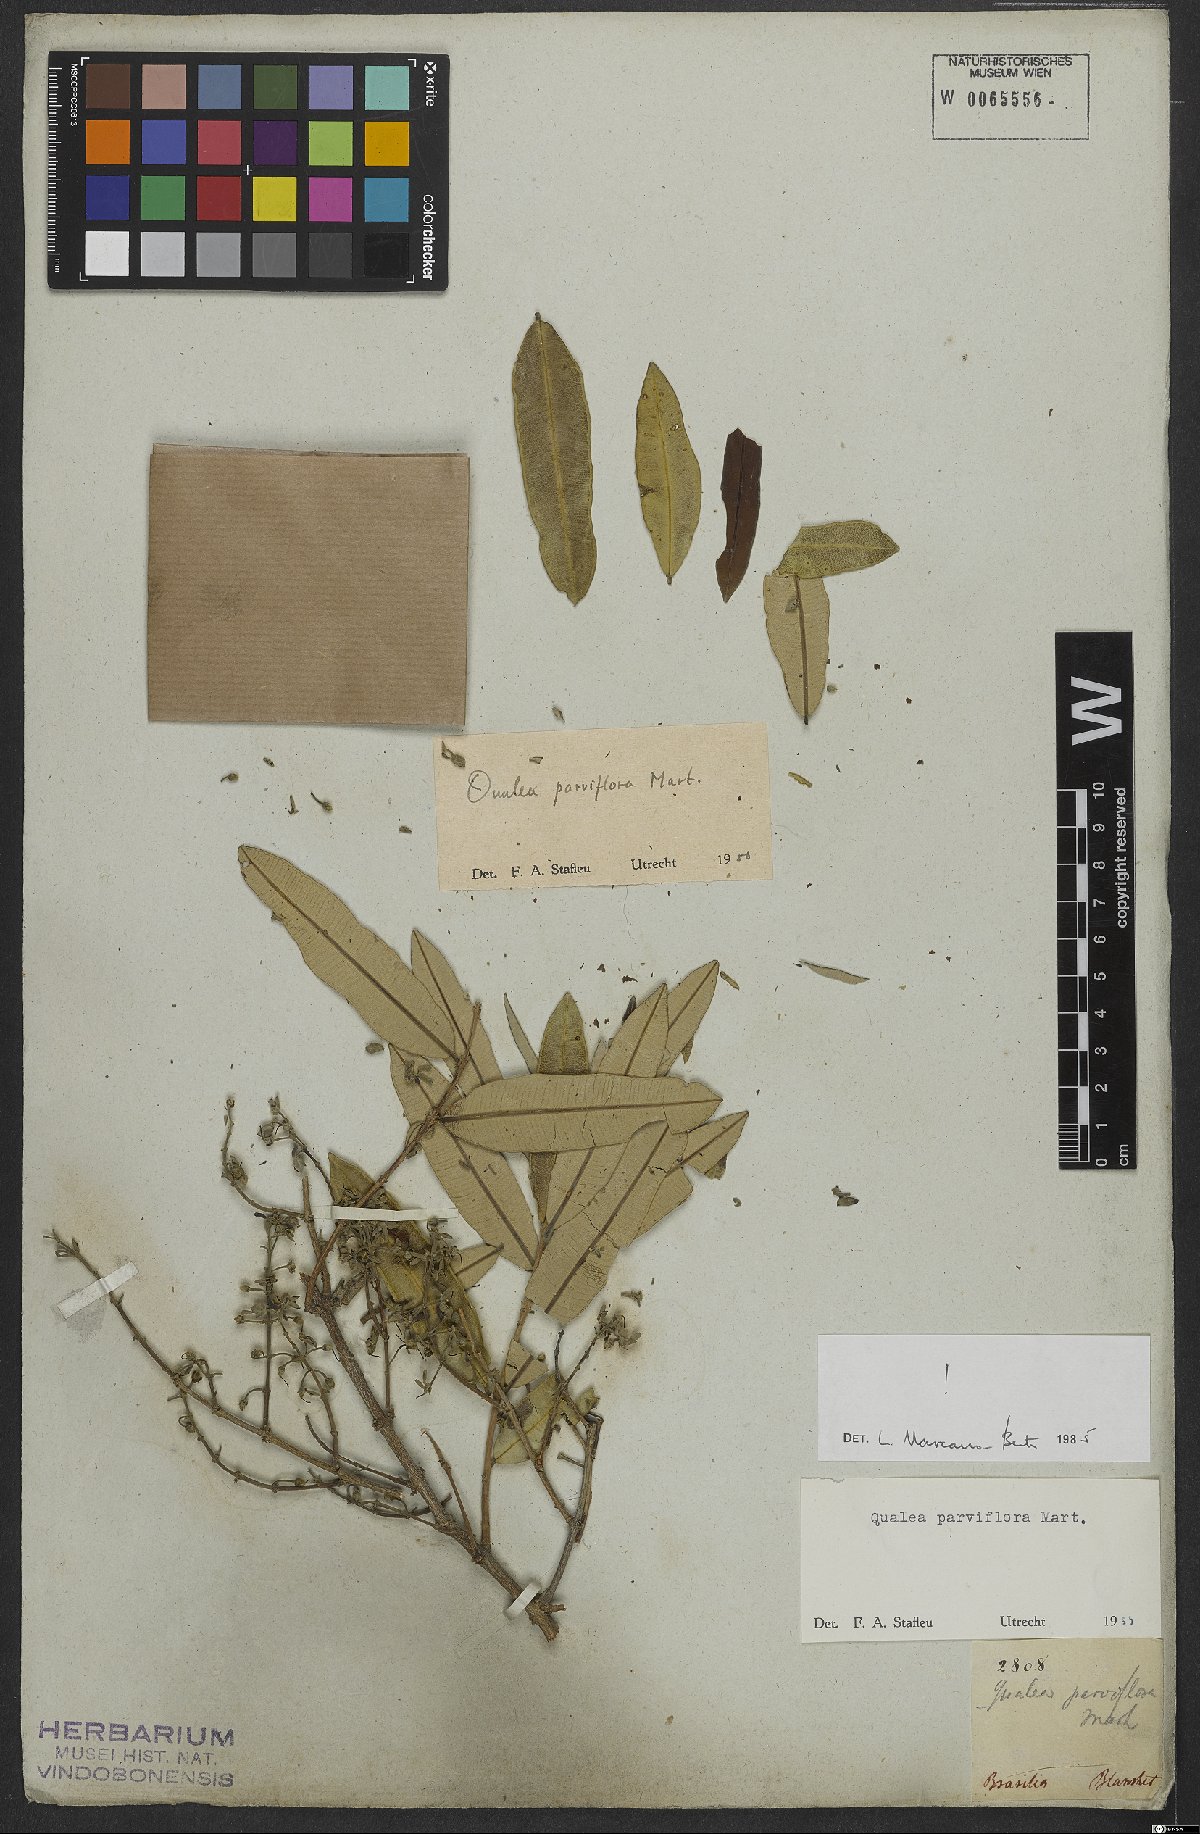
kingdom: Plantae
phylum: Tracheophyta
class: Magnoliopsida
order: Myrtales
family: Vochysiaceae
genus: Qualea
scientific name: Qualea parviflora
